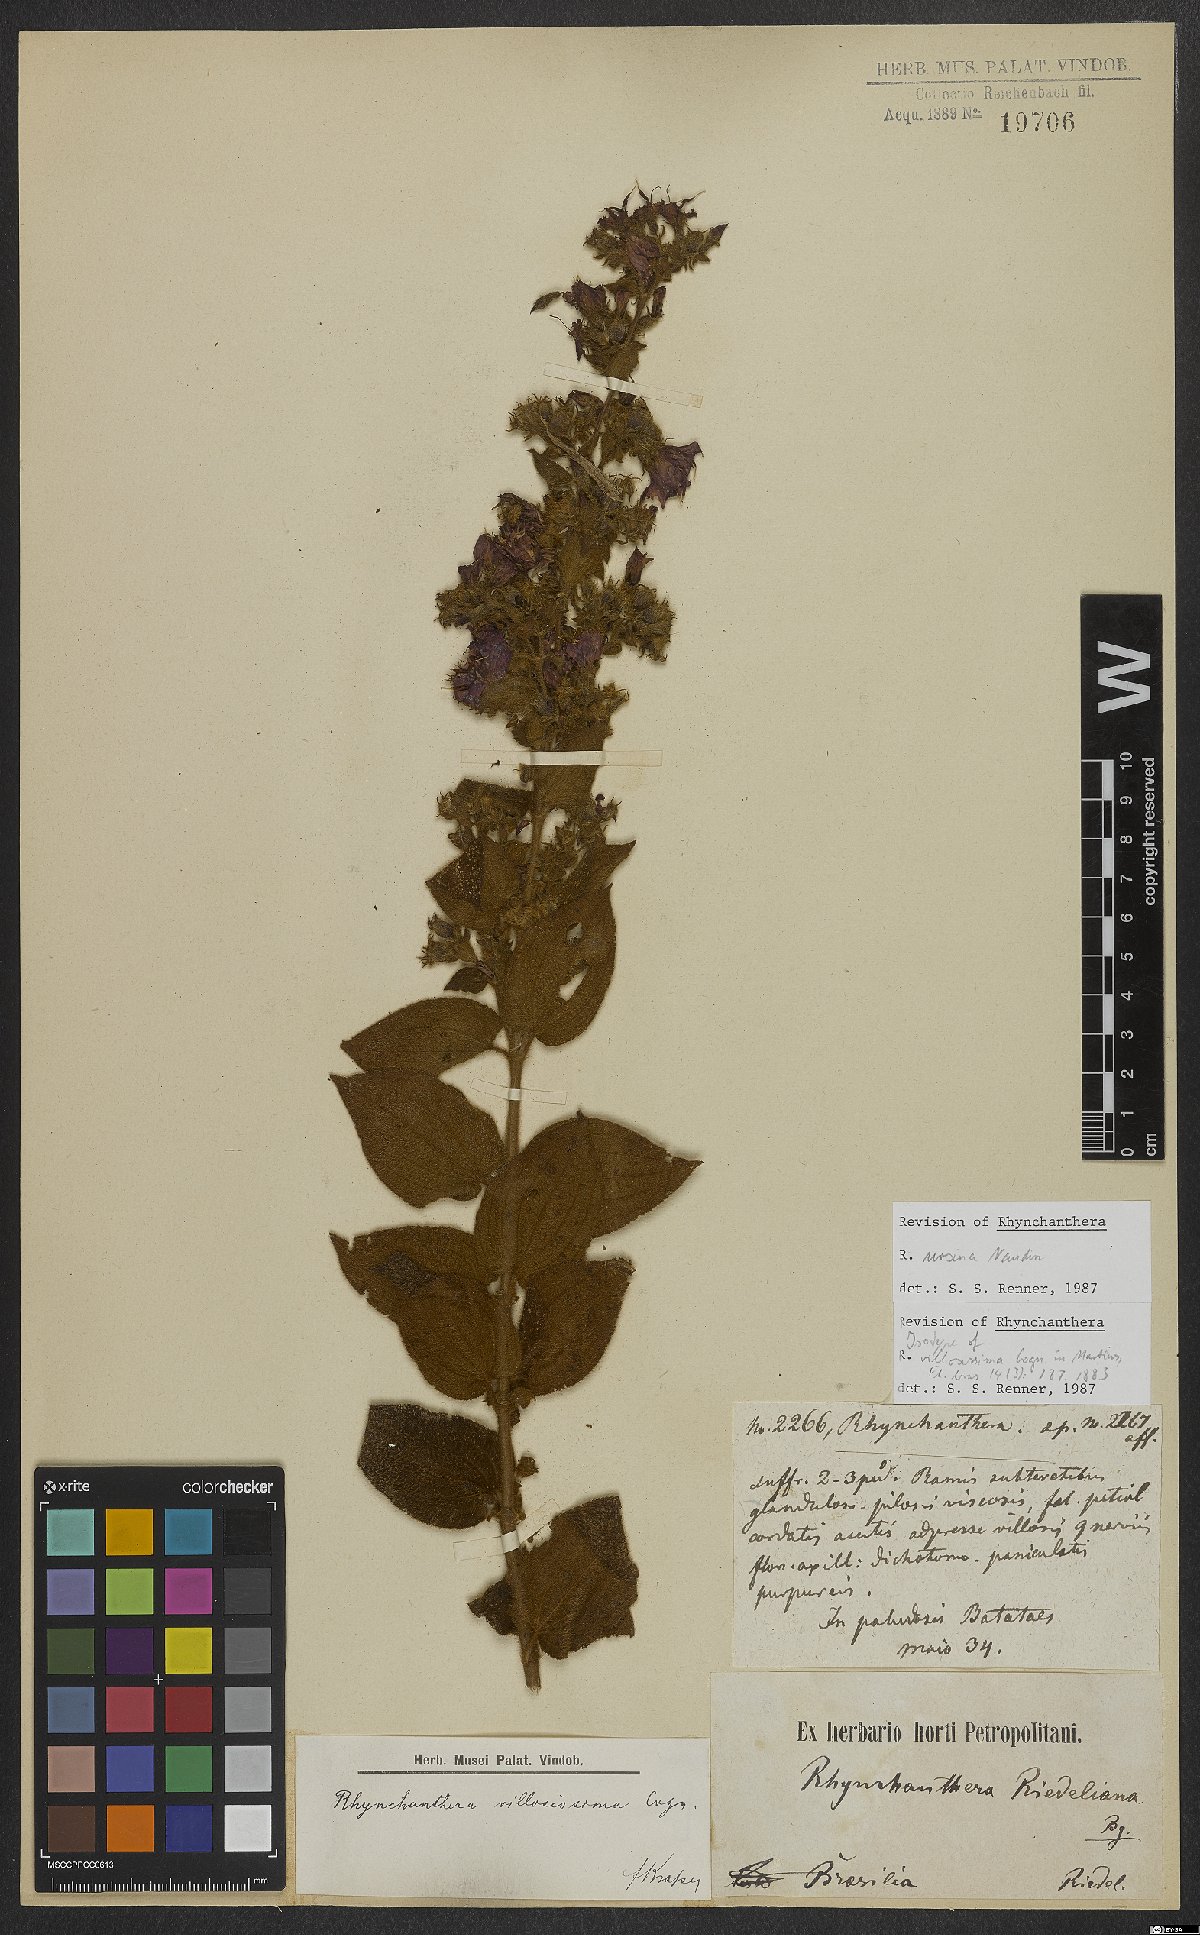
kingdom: Plantae
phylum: Tracheophyta
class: Magnoliopsida
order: Myrtales
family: Melastomataceae
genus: Rhynchanthera
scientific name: Rhynchanthera ursina
